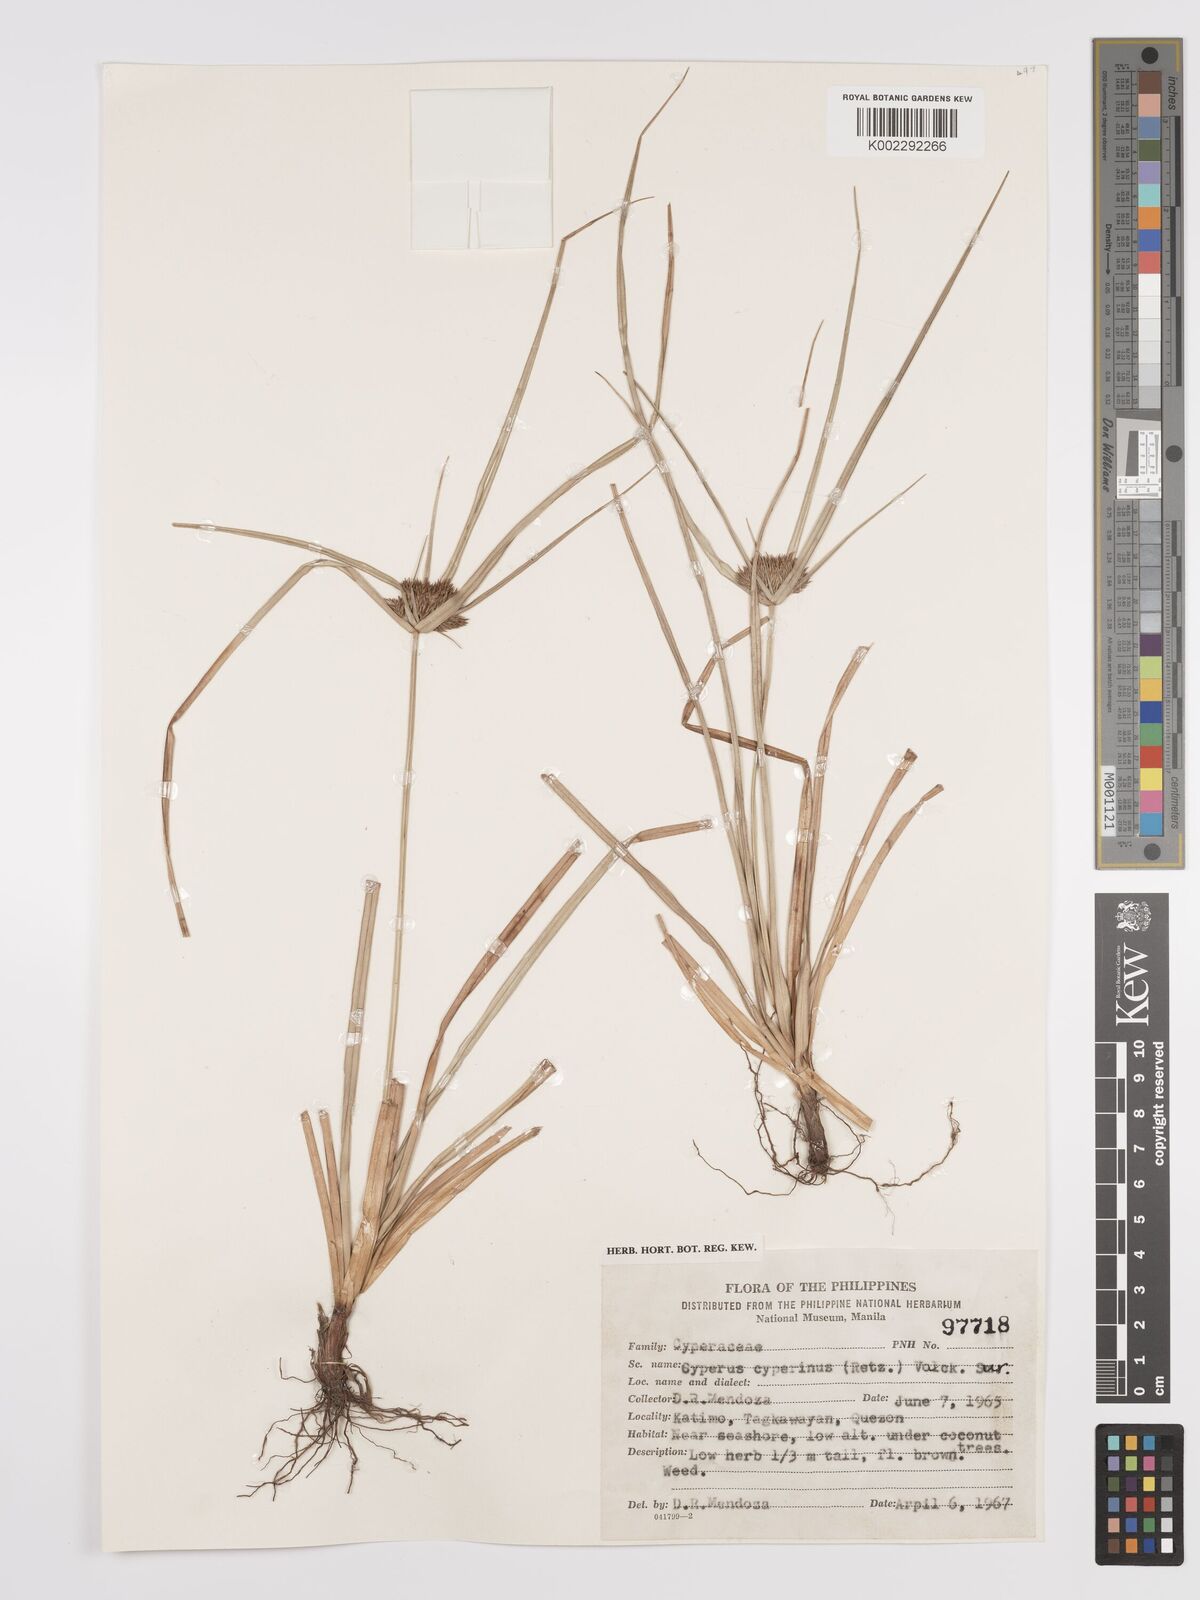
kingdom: Plantae
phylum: Tracheophyta
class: Liliopsida
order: Poales
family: Cyperaceae
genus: Cyperus
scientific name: Cyperus cyperinus
